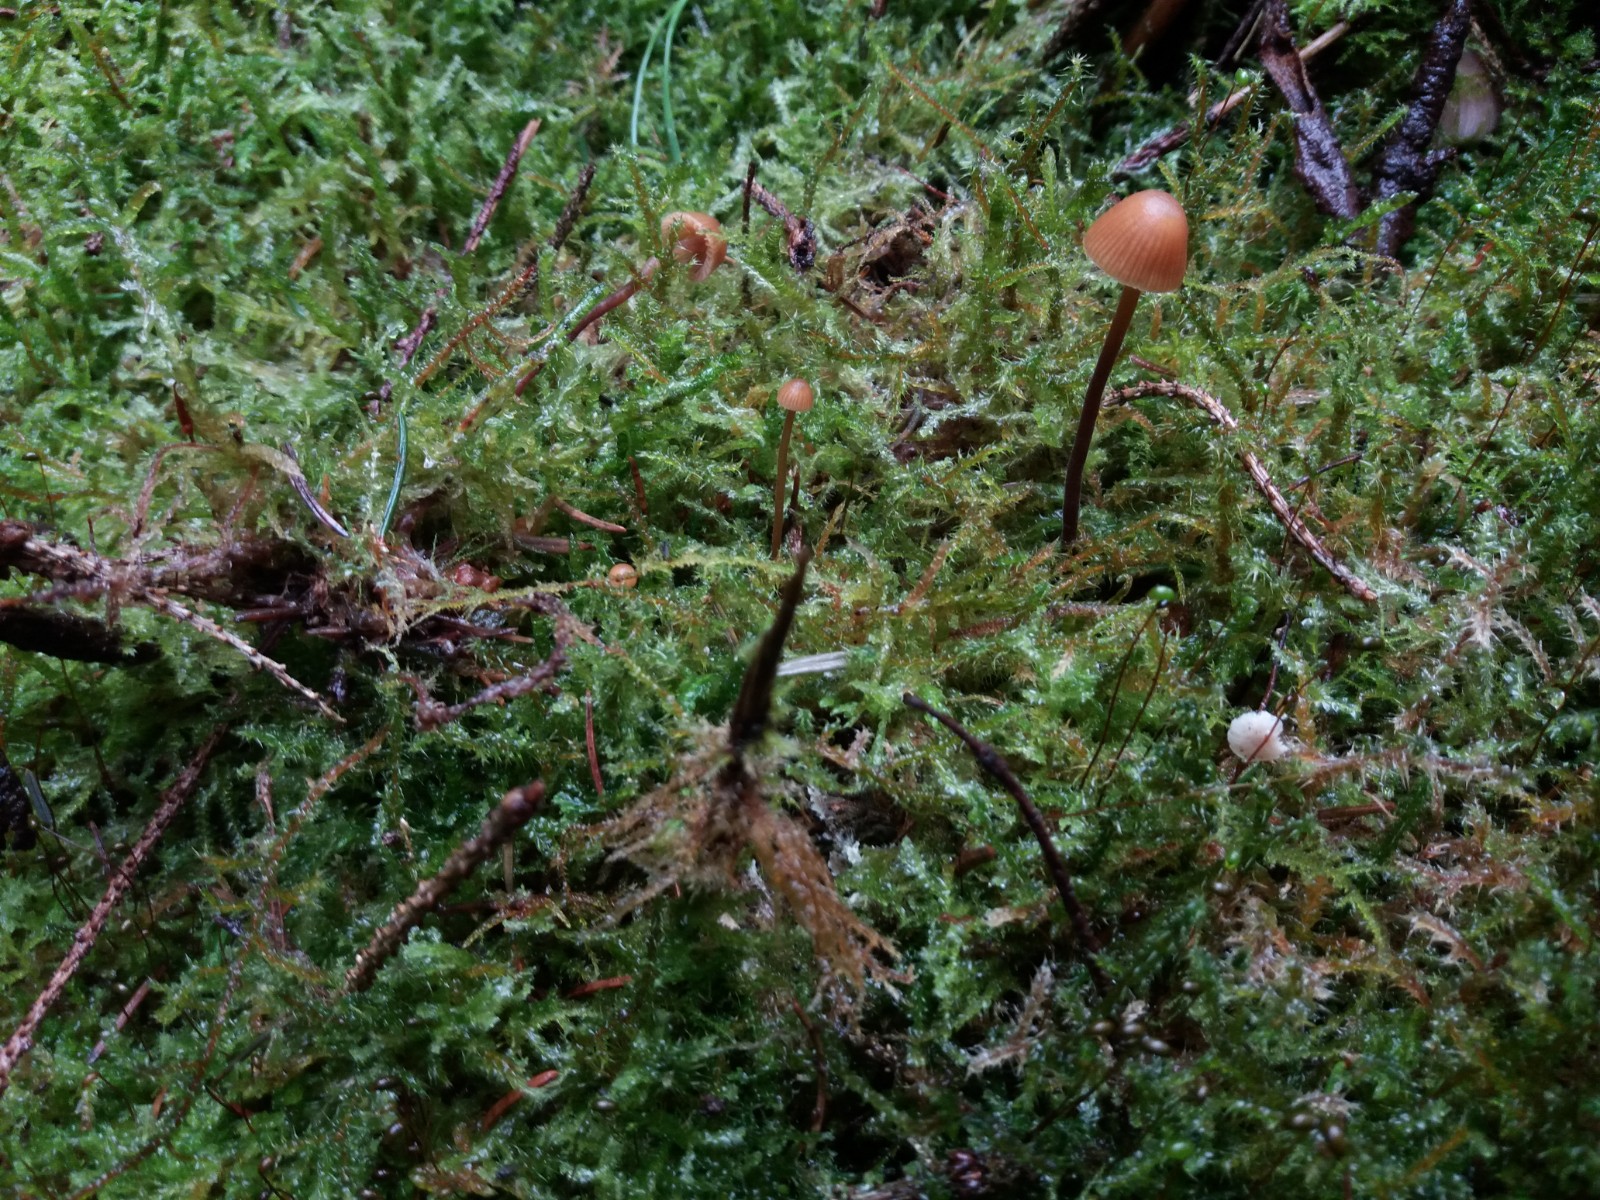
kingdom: Fungi
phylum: Basidiomycota
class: Agaricomycetes
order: Agaricales
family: Hymenogastraceae
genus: Galerina
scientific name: Galerina vittiformis
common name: Hairy leg bell
